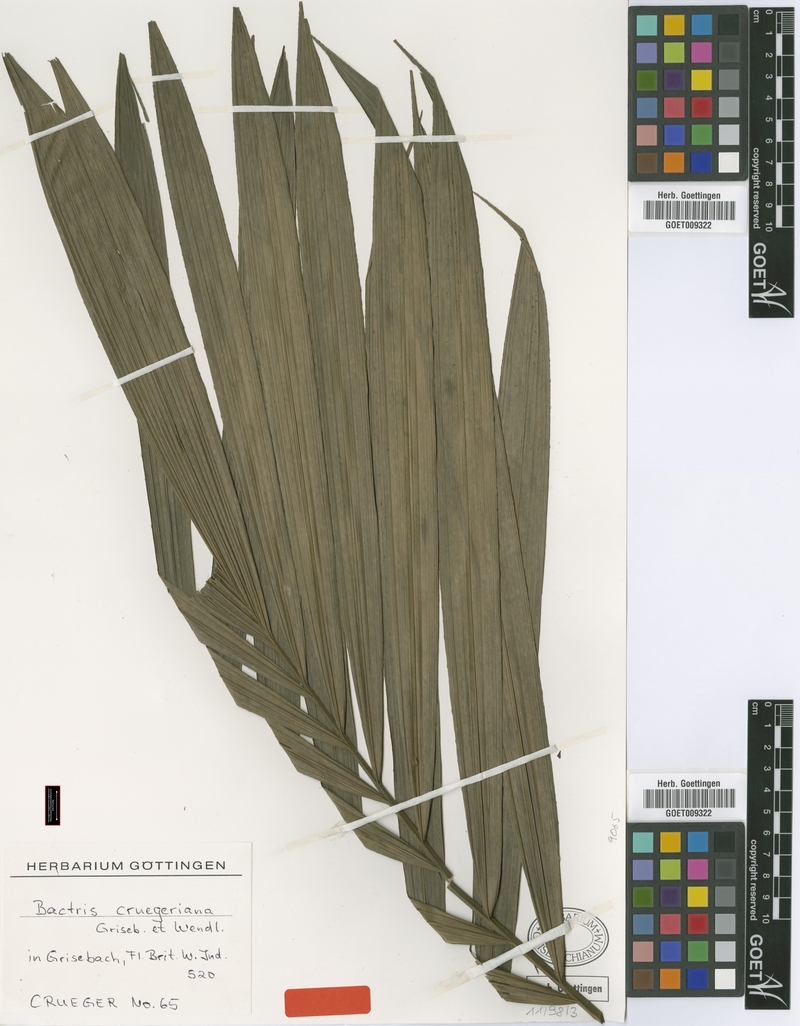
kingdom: Plantae
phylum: Tracheophyta
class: Liliopsida
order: Arecales
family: Arecaceae
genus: Bactris
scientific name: Bactris major
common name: Beach palm
